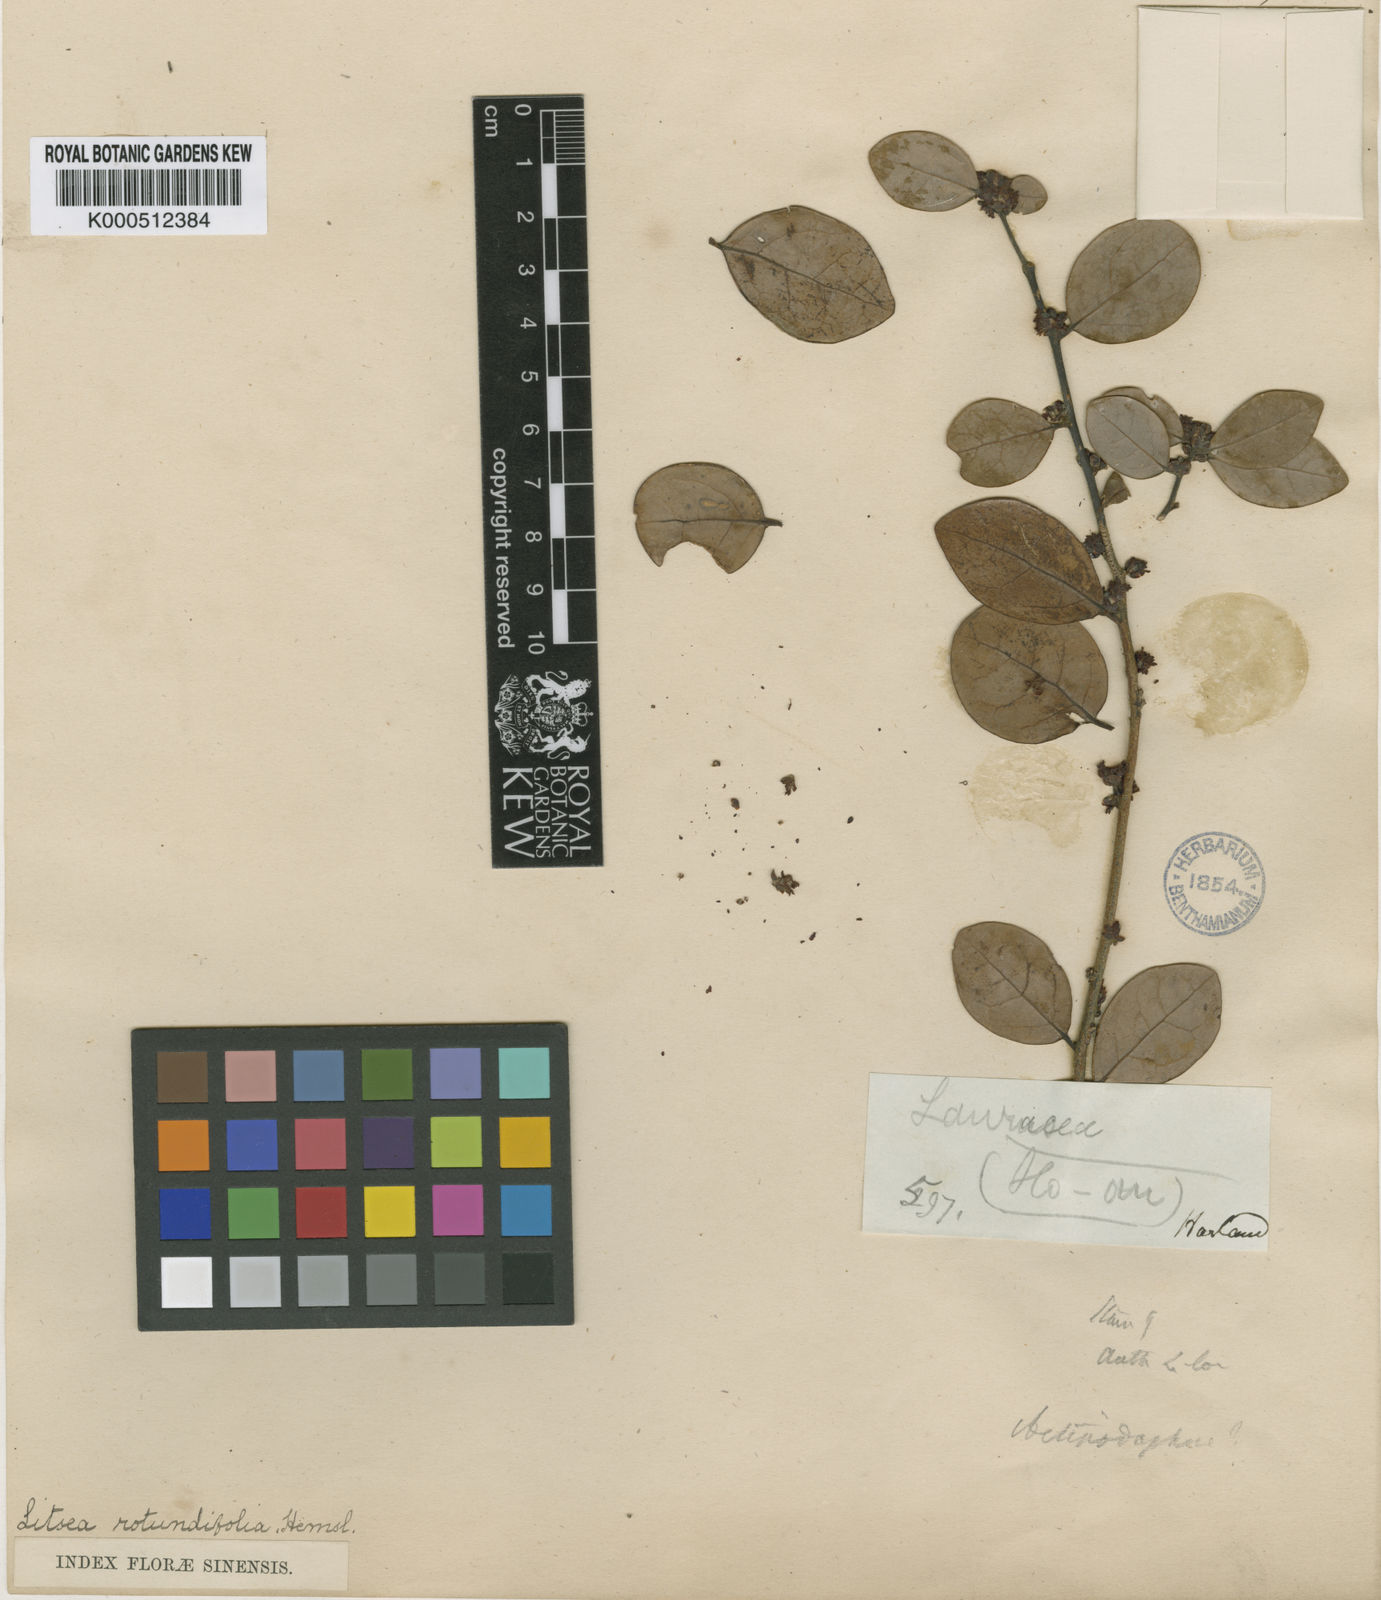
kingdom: Plantae
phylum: Tracheophyta
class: Magnoliopsida
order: Laurales
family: Lauraceae
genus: Litsea
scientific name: Litsea rotundifolia
